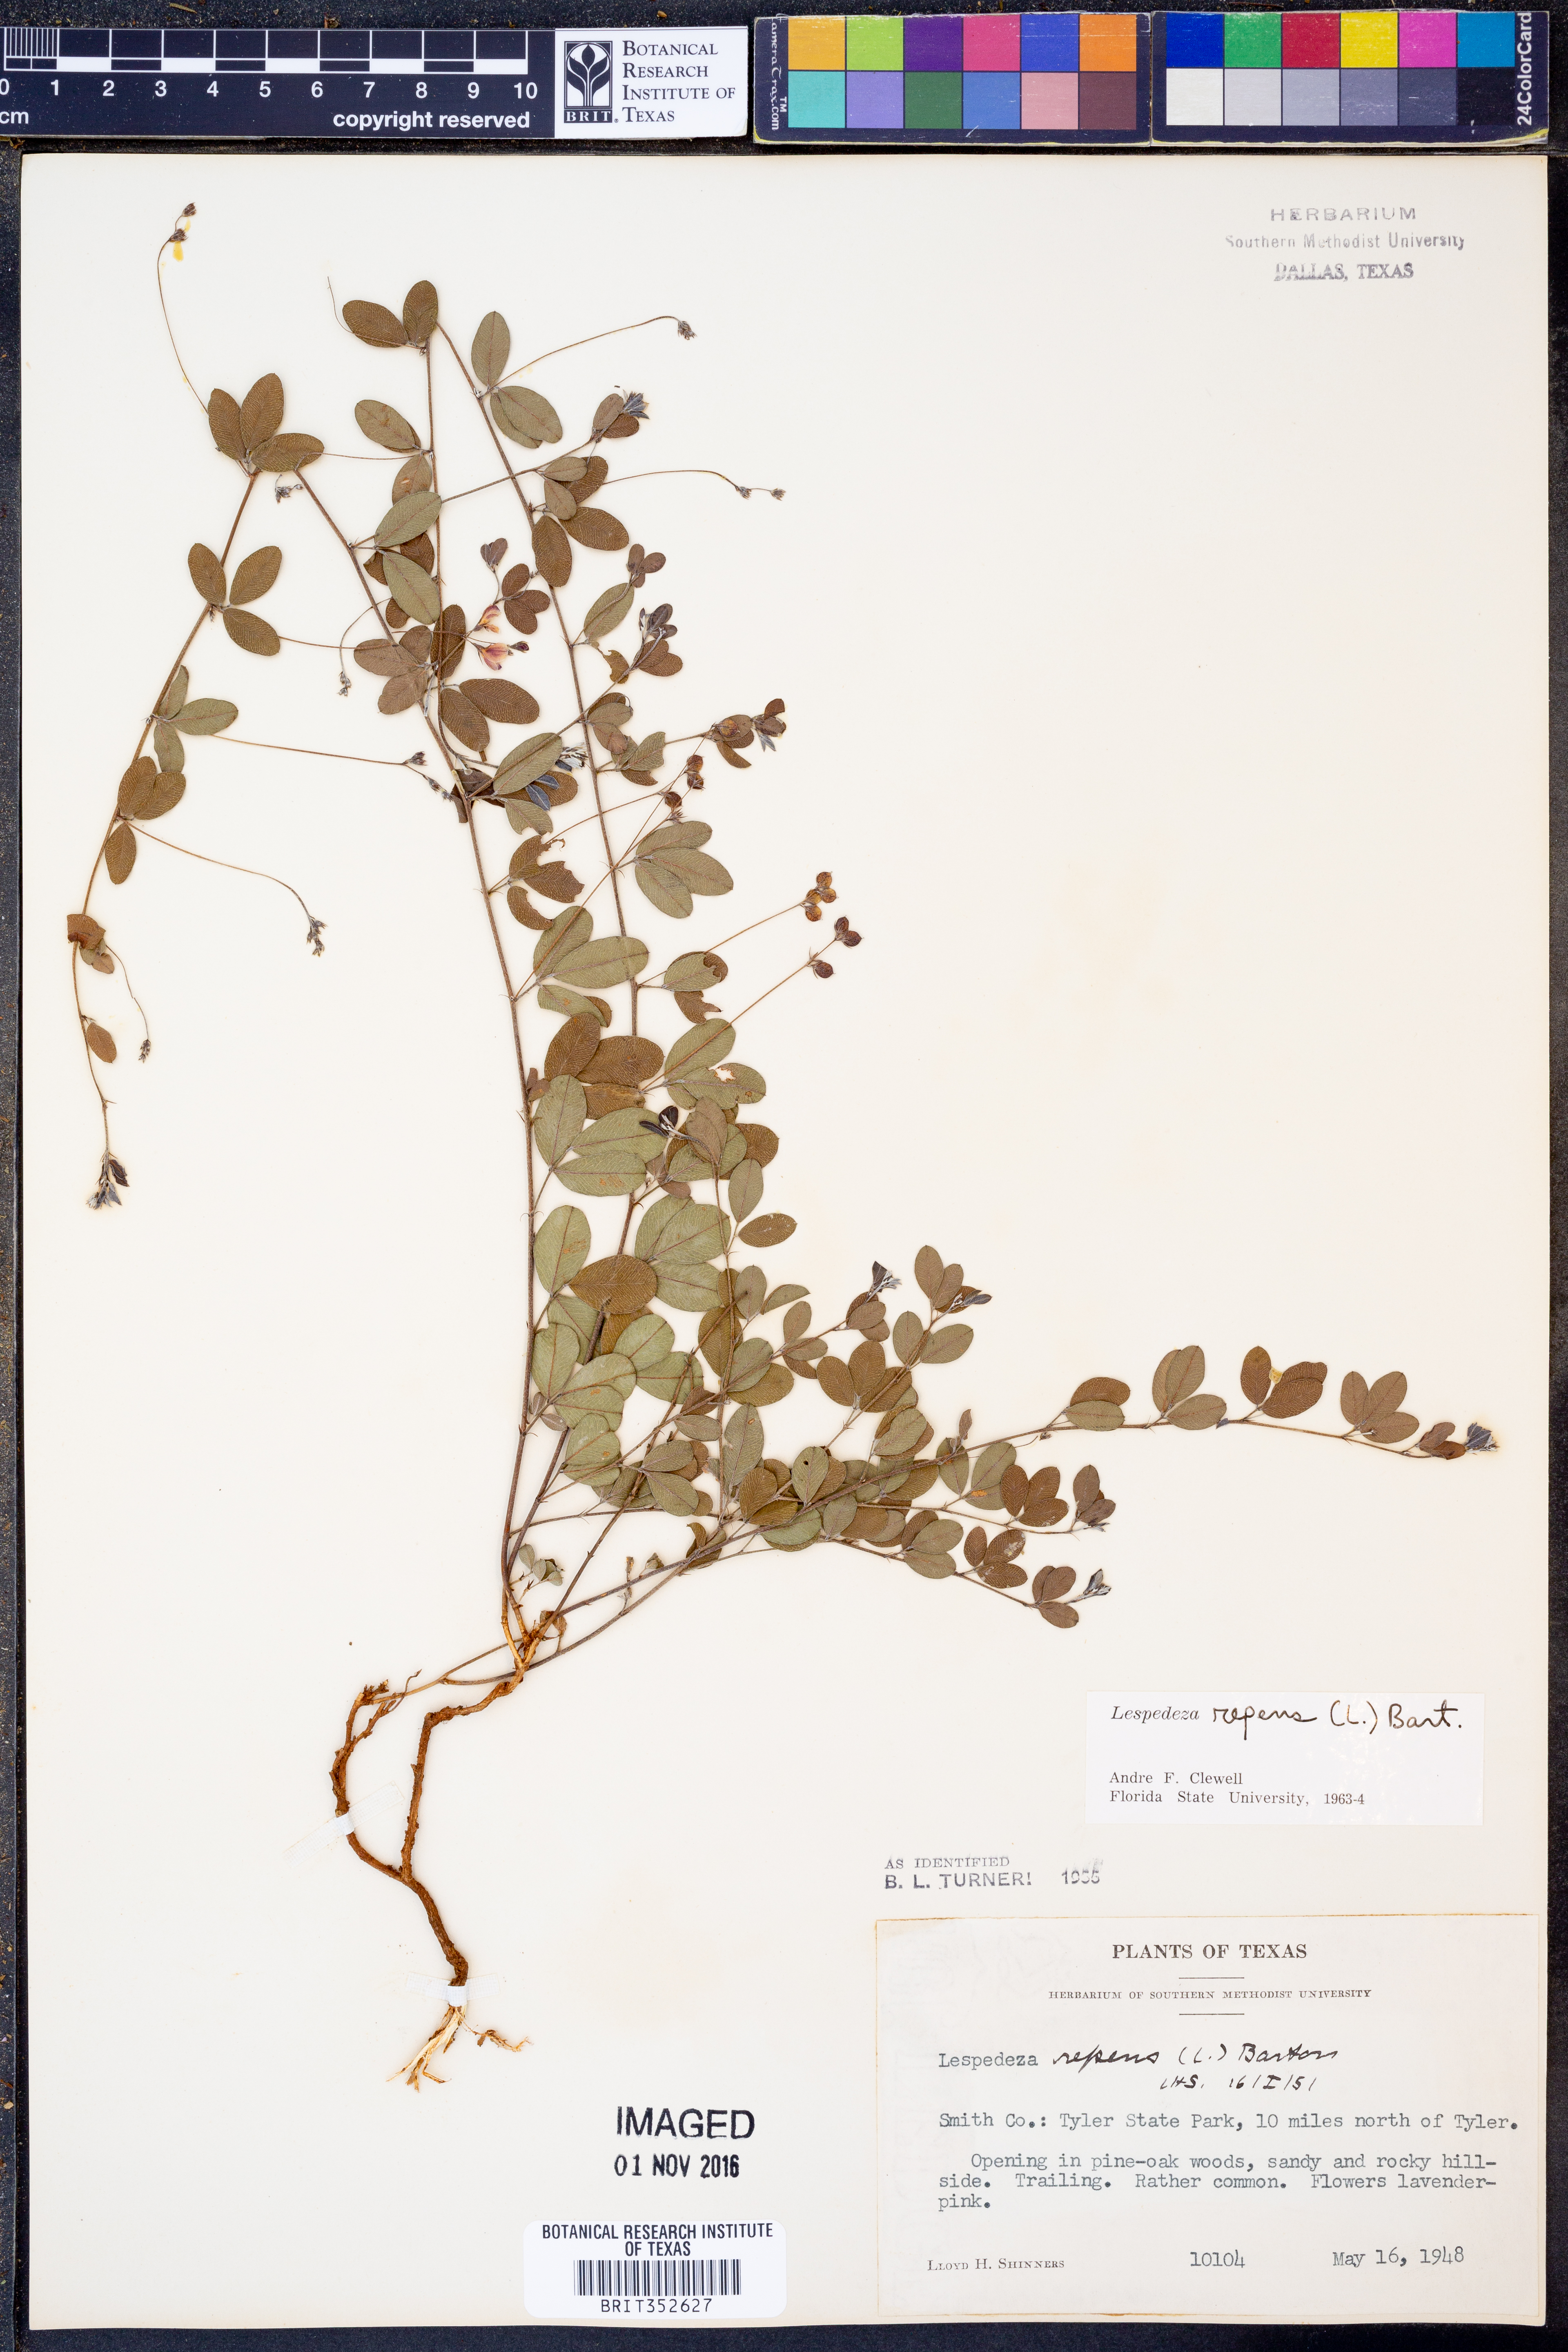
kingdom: Plantae
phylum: Tracheophyta
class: Magnoliopsida
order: Fabales
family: Fabaceae
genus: Lespedeza
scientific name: Lespedeza repens
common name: Creeping bush-clover
